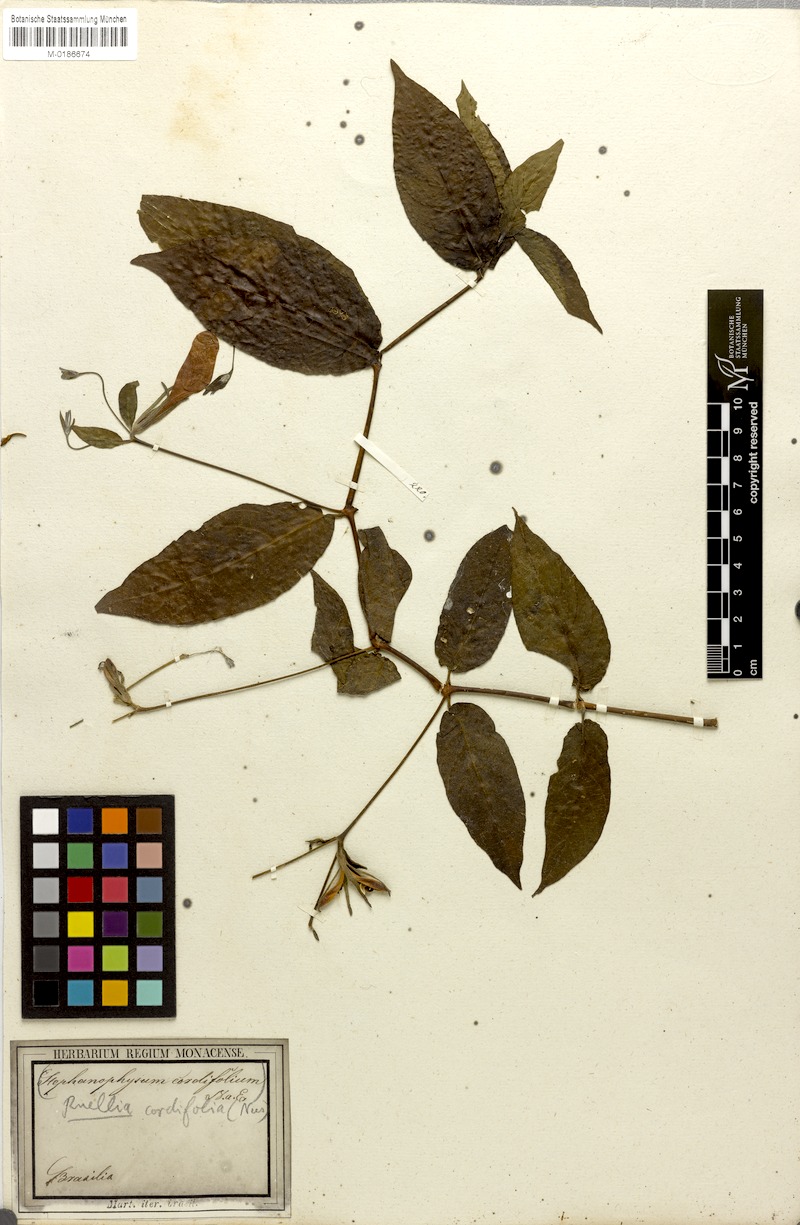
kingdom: Plantae
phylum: Tracheophyta
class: Magnoliopsida
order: Lamiales
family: Acanthaceae
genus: Strobilanthes
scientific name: Strobilanthes cordifolia
